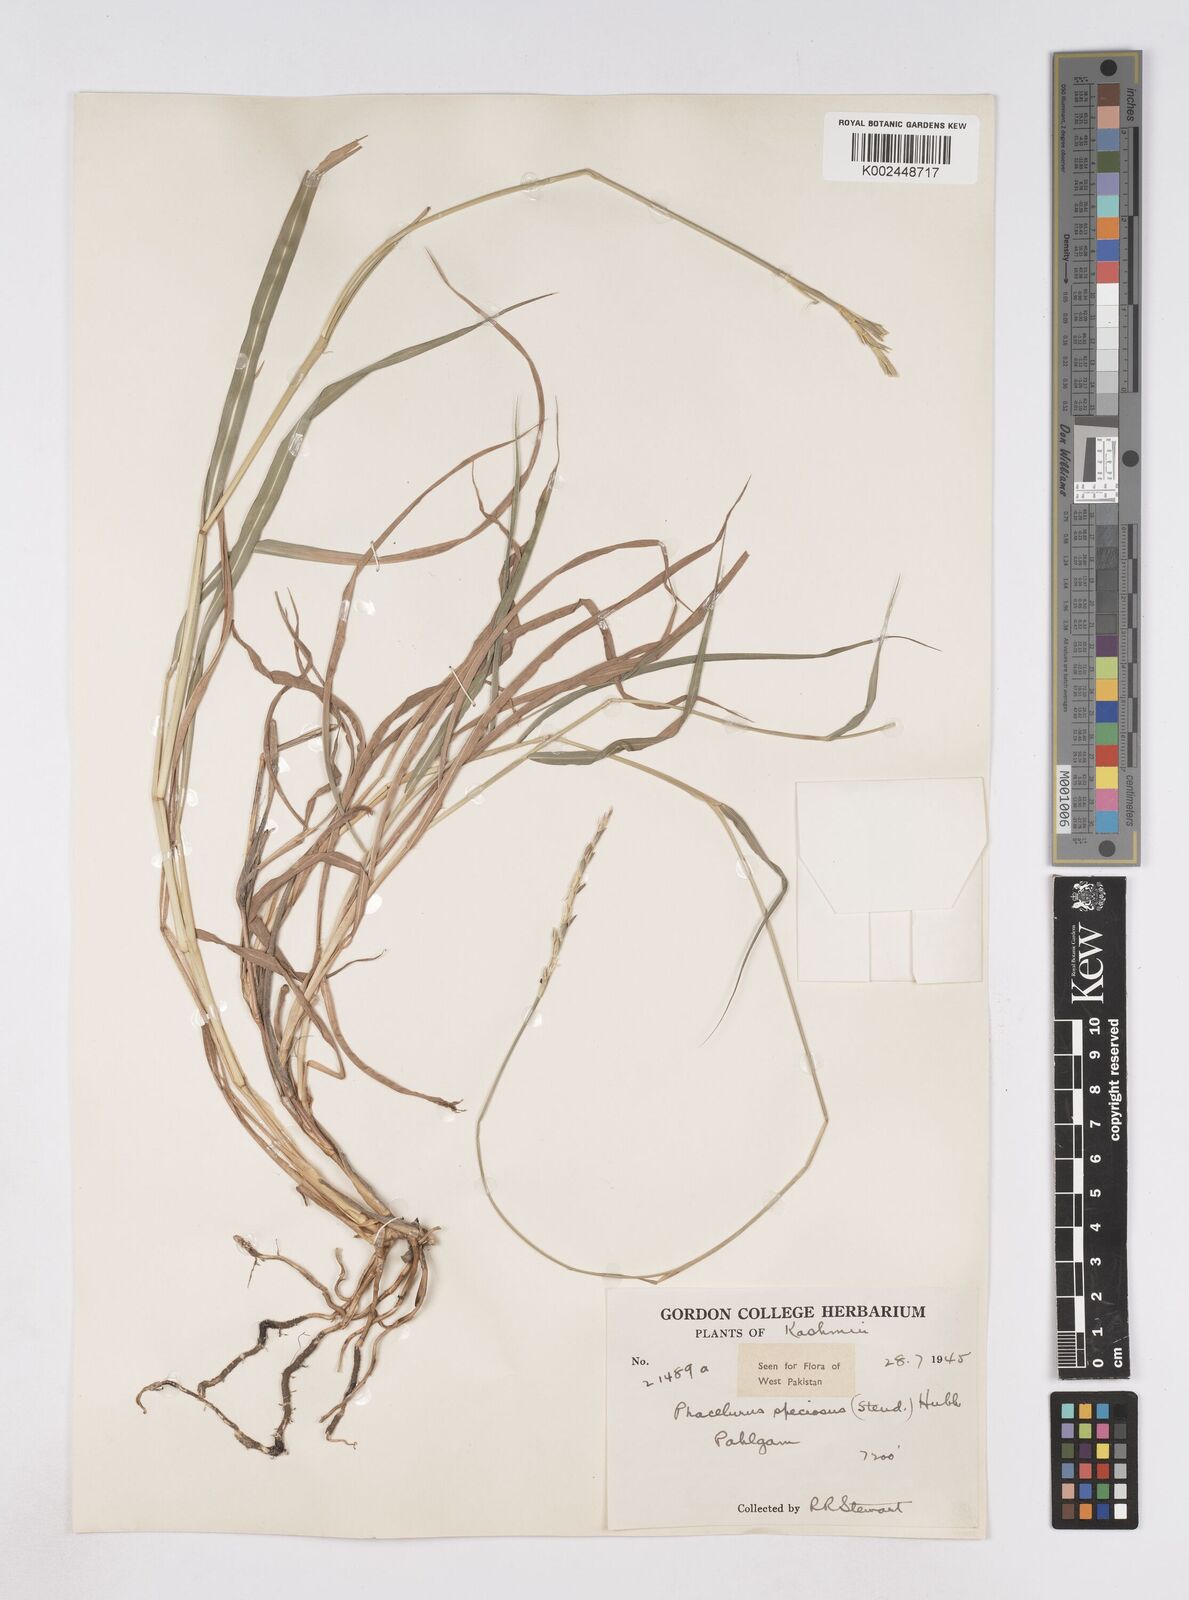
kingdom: Plantae
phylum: Tracheophyta
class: Liliopsida
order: Poales
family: Poaceae
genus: Phacelurus
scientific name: Phacelurus speciosus
